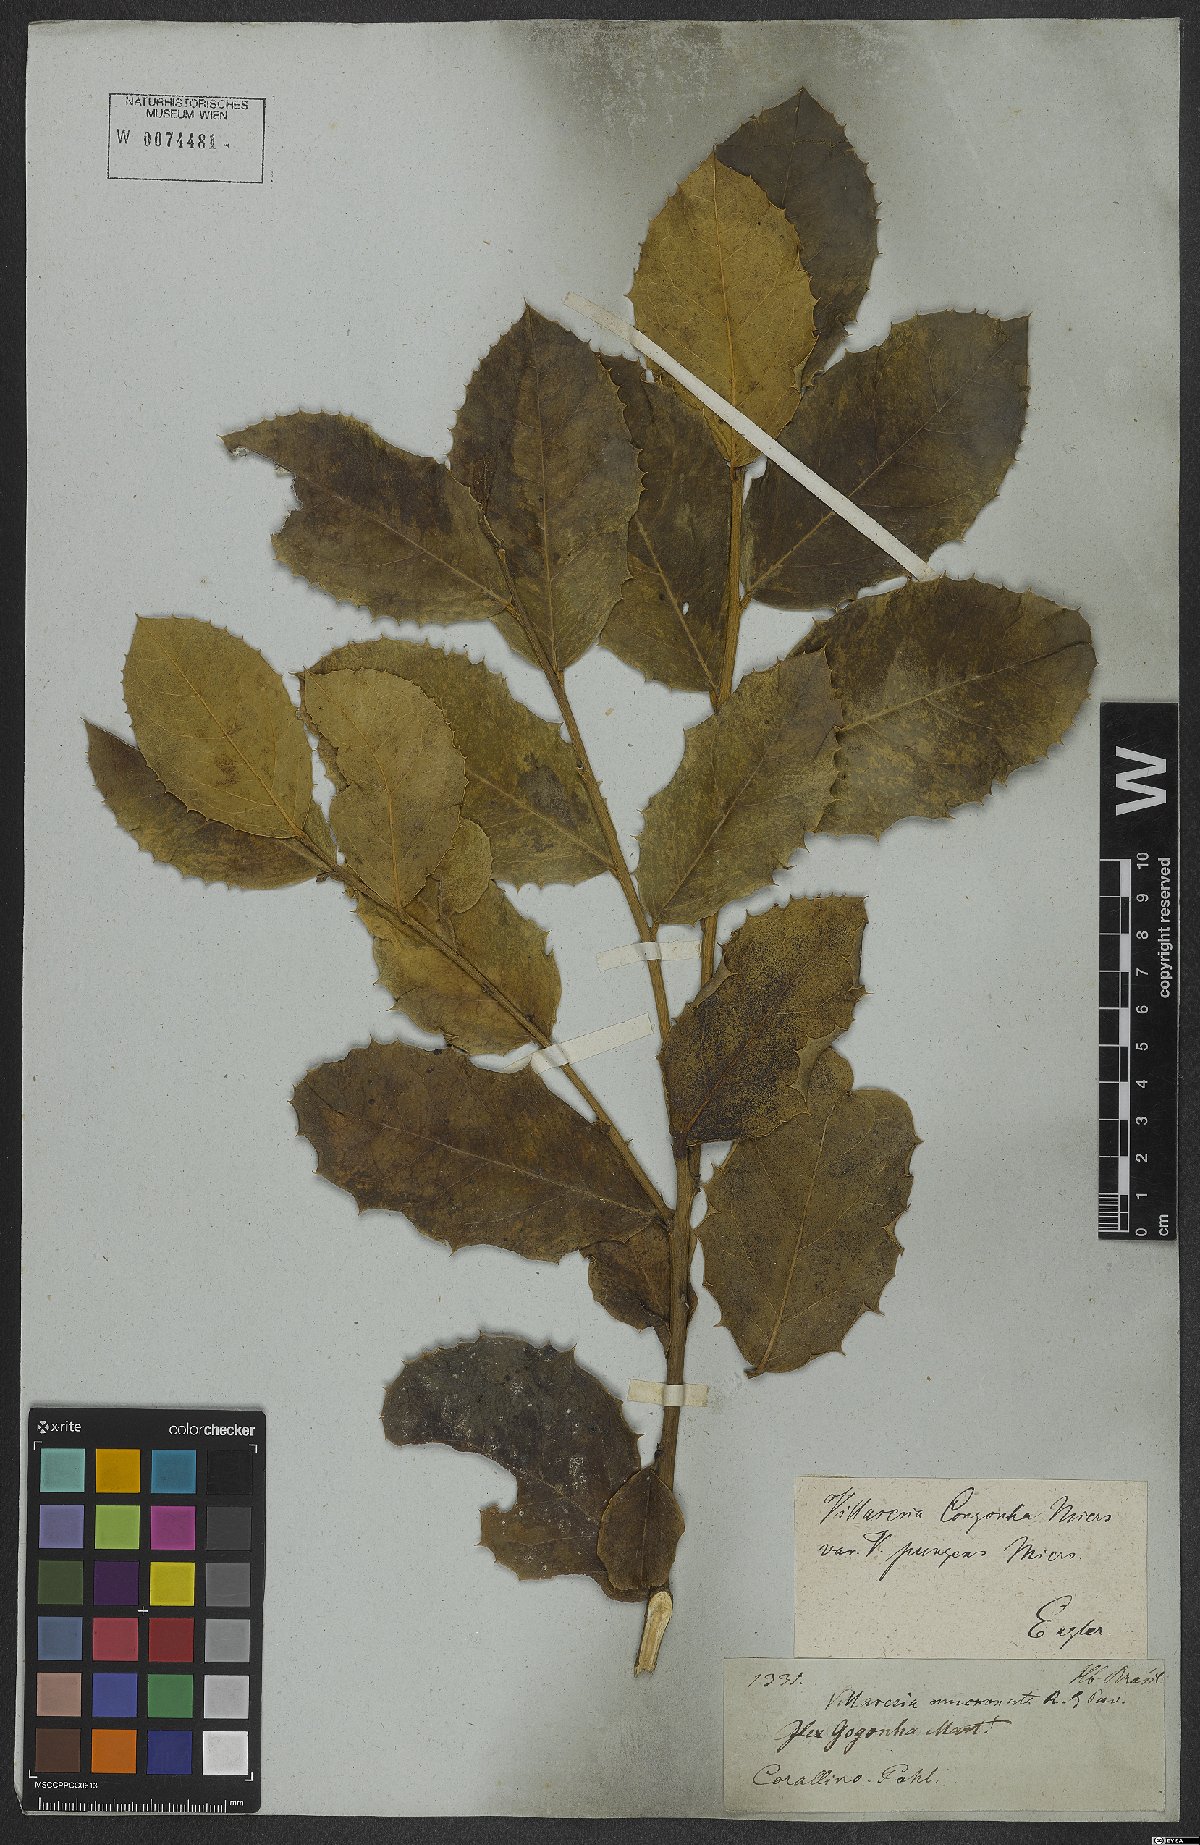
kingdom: Plantae
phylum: Tracheophyta
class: Magnoliopsida
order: Cardiopteridales
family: Cardiopteridaceae
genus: Citronella
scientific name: Citronella gongonha
